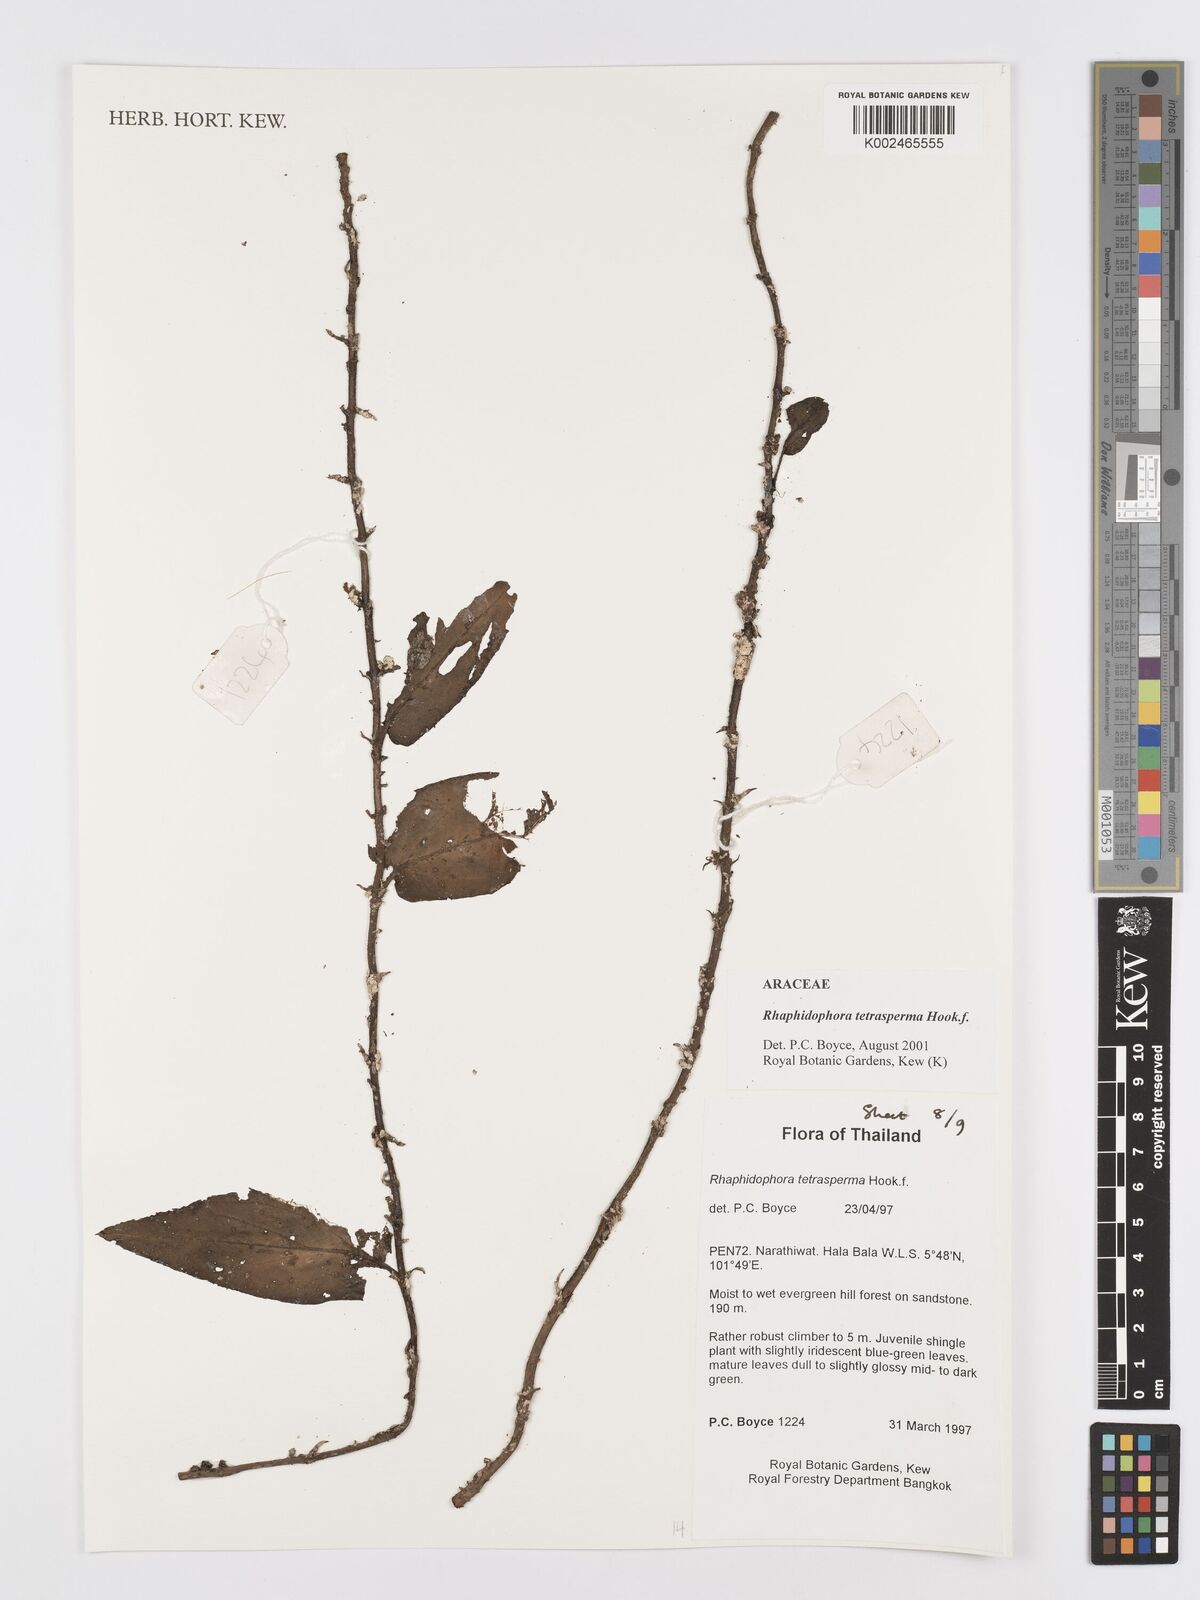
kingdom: Plantae
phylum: Tracheophyta
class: Liliopsida
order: Alismatales
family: Araceae
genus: Rhaphidophora
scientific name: Rhaphidophora tetrasperma
